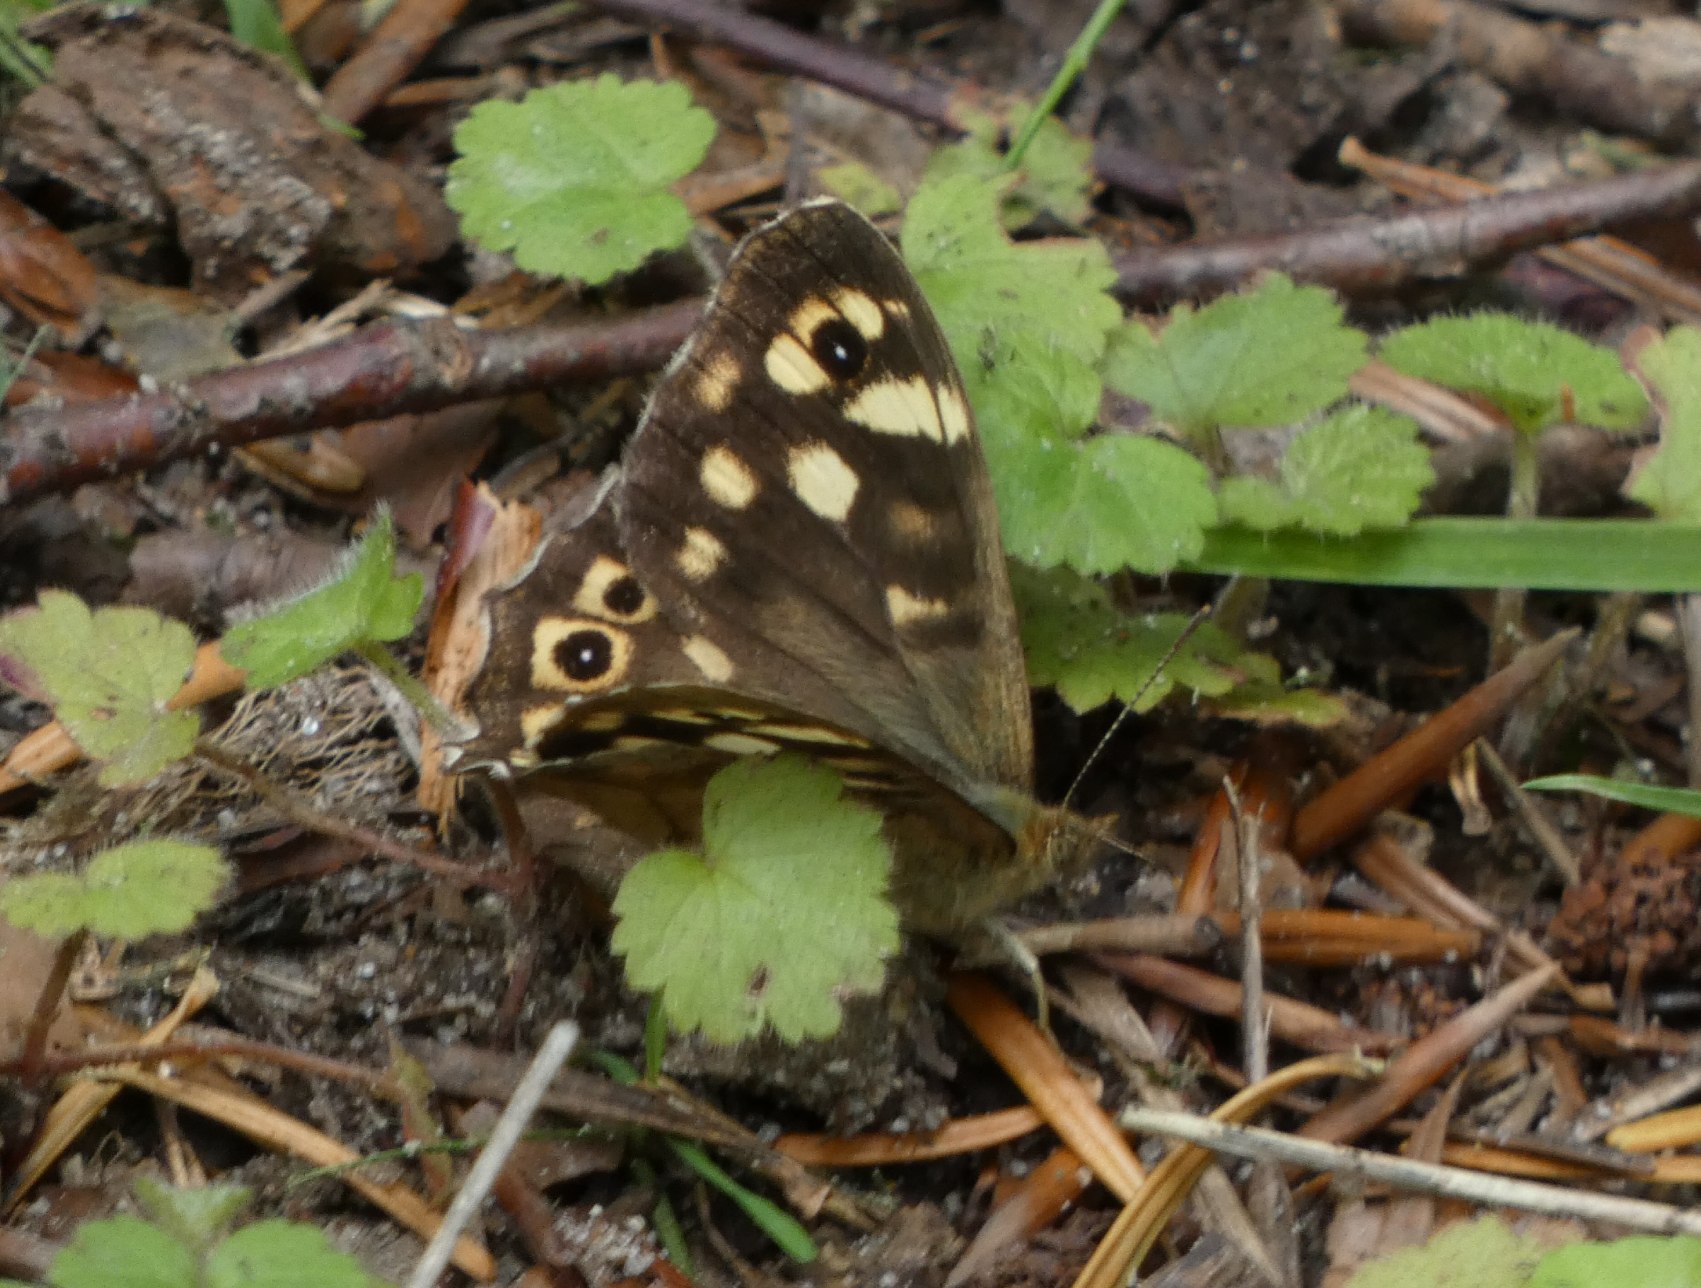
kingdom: Animalia
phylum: Arthropoda
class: Insecta
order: Lepidoptera
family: Nymphalidae
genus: Pararge
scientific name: Pararge aegeria
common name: Skovrandøje
